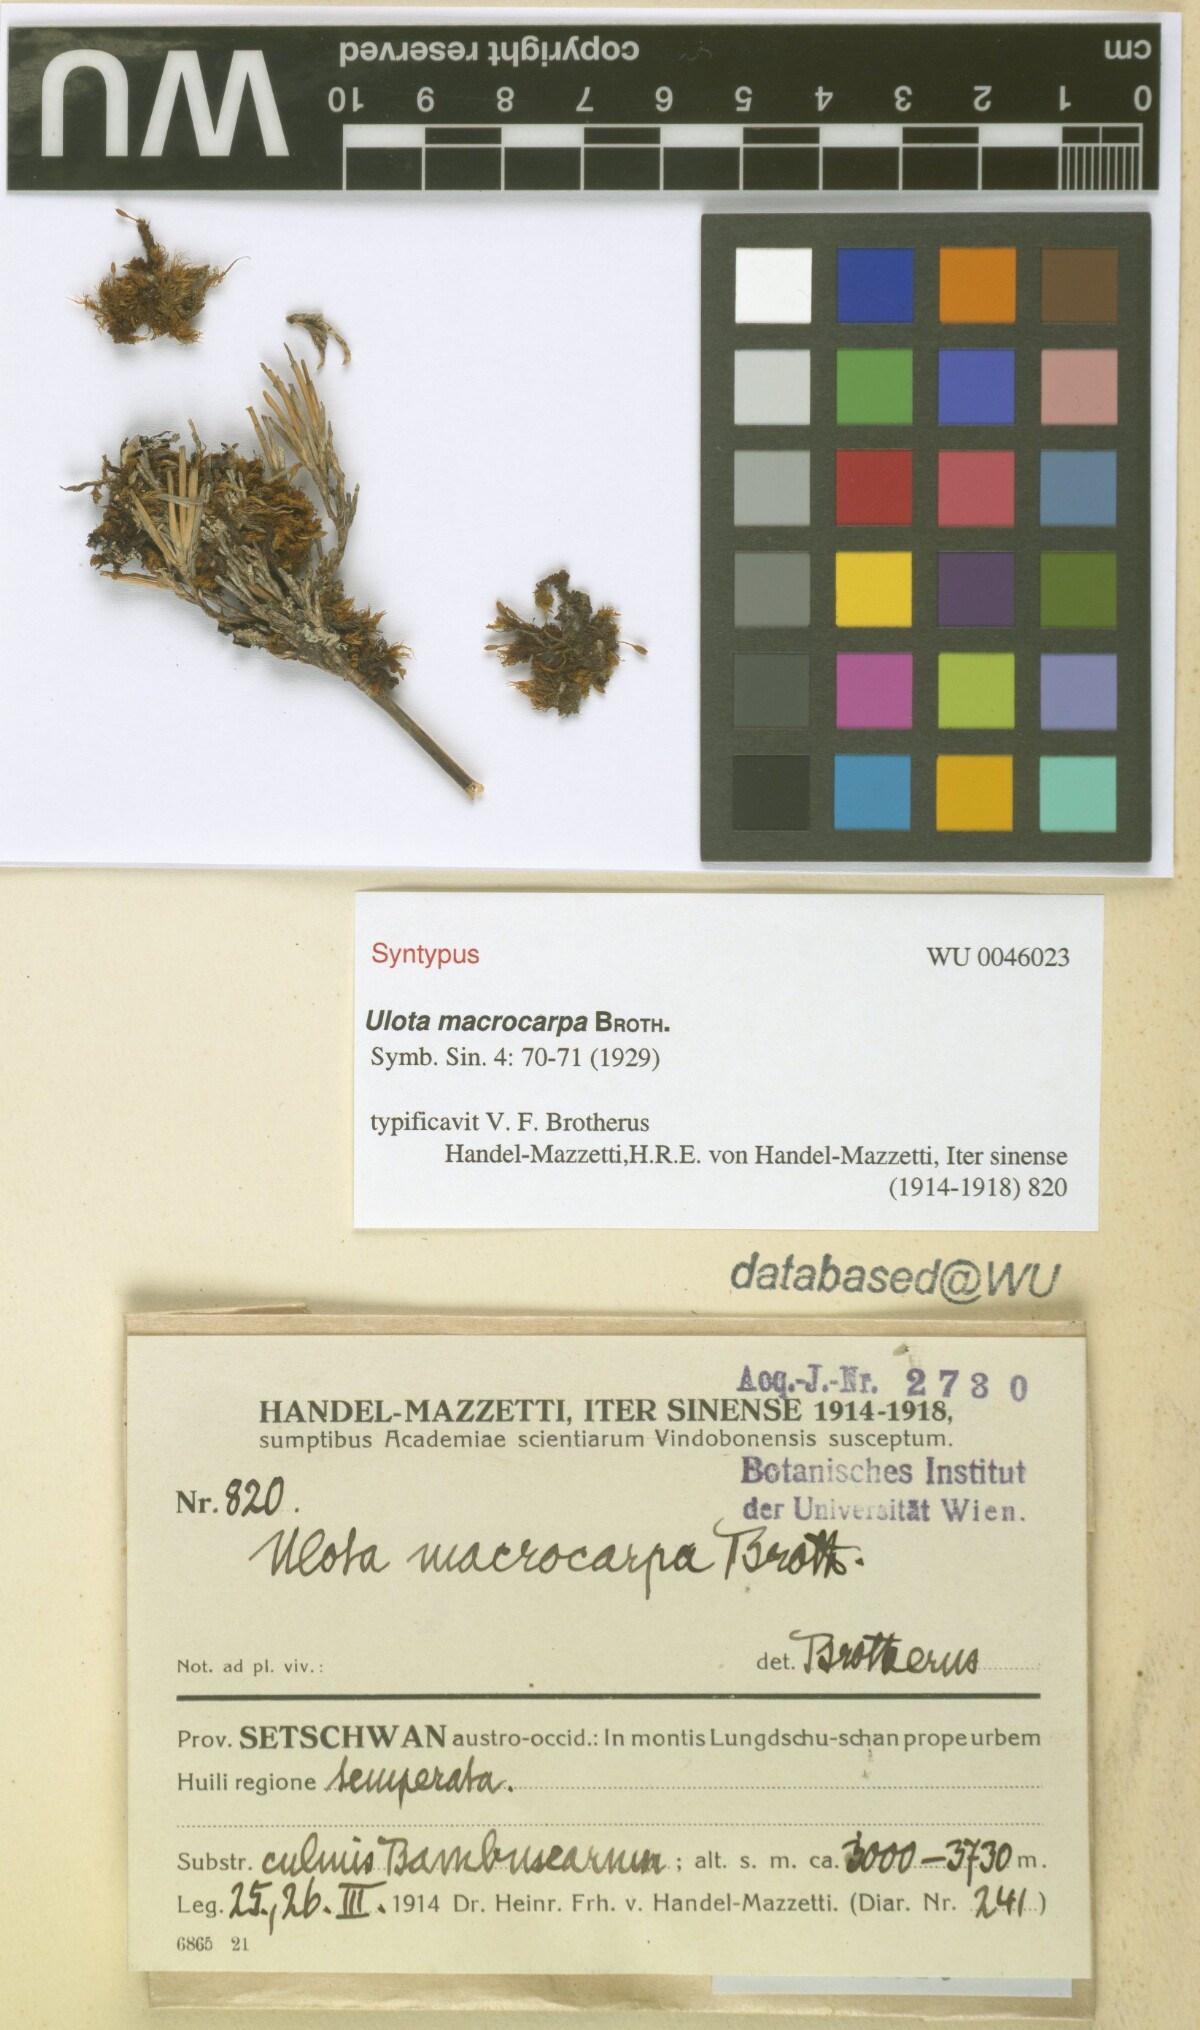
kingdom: Plantae
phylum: Bryophyta
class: Bryopsida
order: Orthotrichales
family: Orthotrichaceae
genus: Ulota
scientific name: Ulota crispa
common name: Crisped pincushion moss
